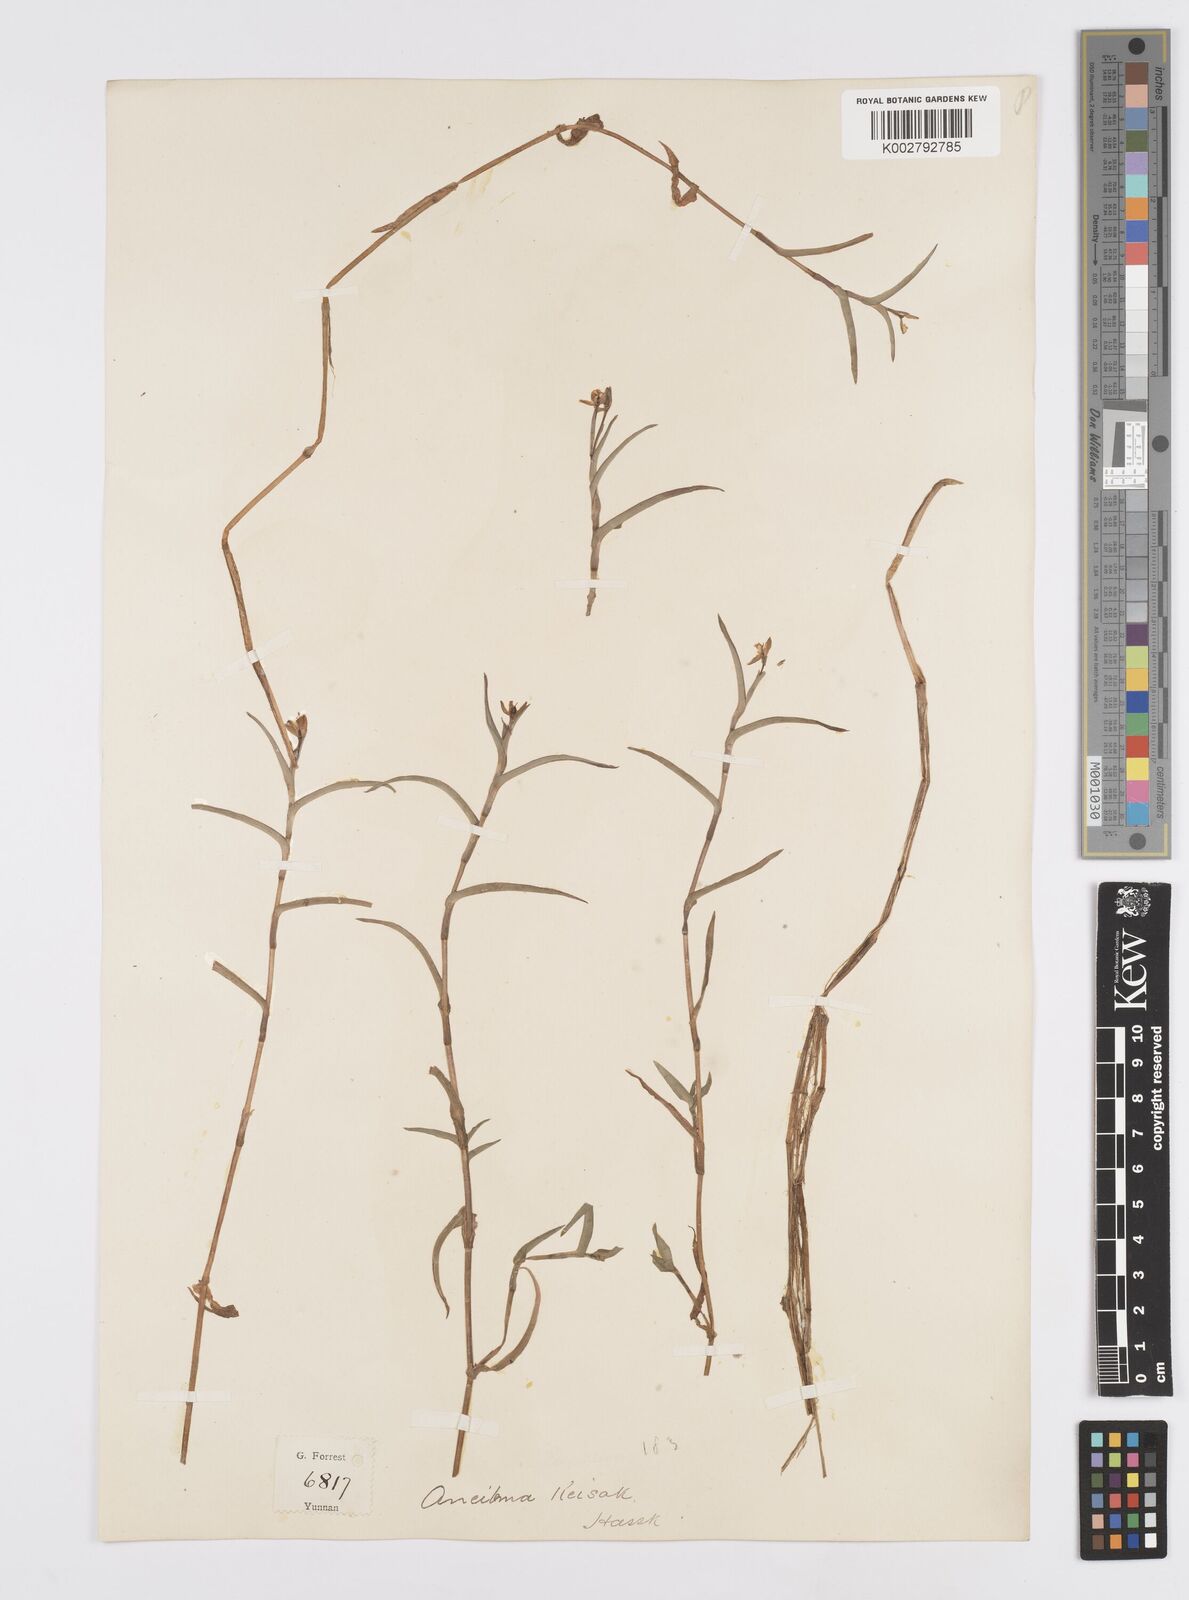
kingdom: Plantae
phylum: Tracheophyta
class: Liliopsida
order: Commelinales
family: Commelinaceae
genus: Murdannia
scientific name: Murdannia keisak
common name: Wartremoving herb
